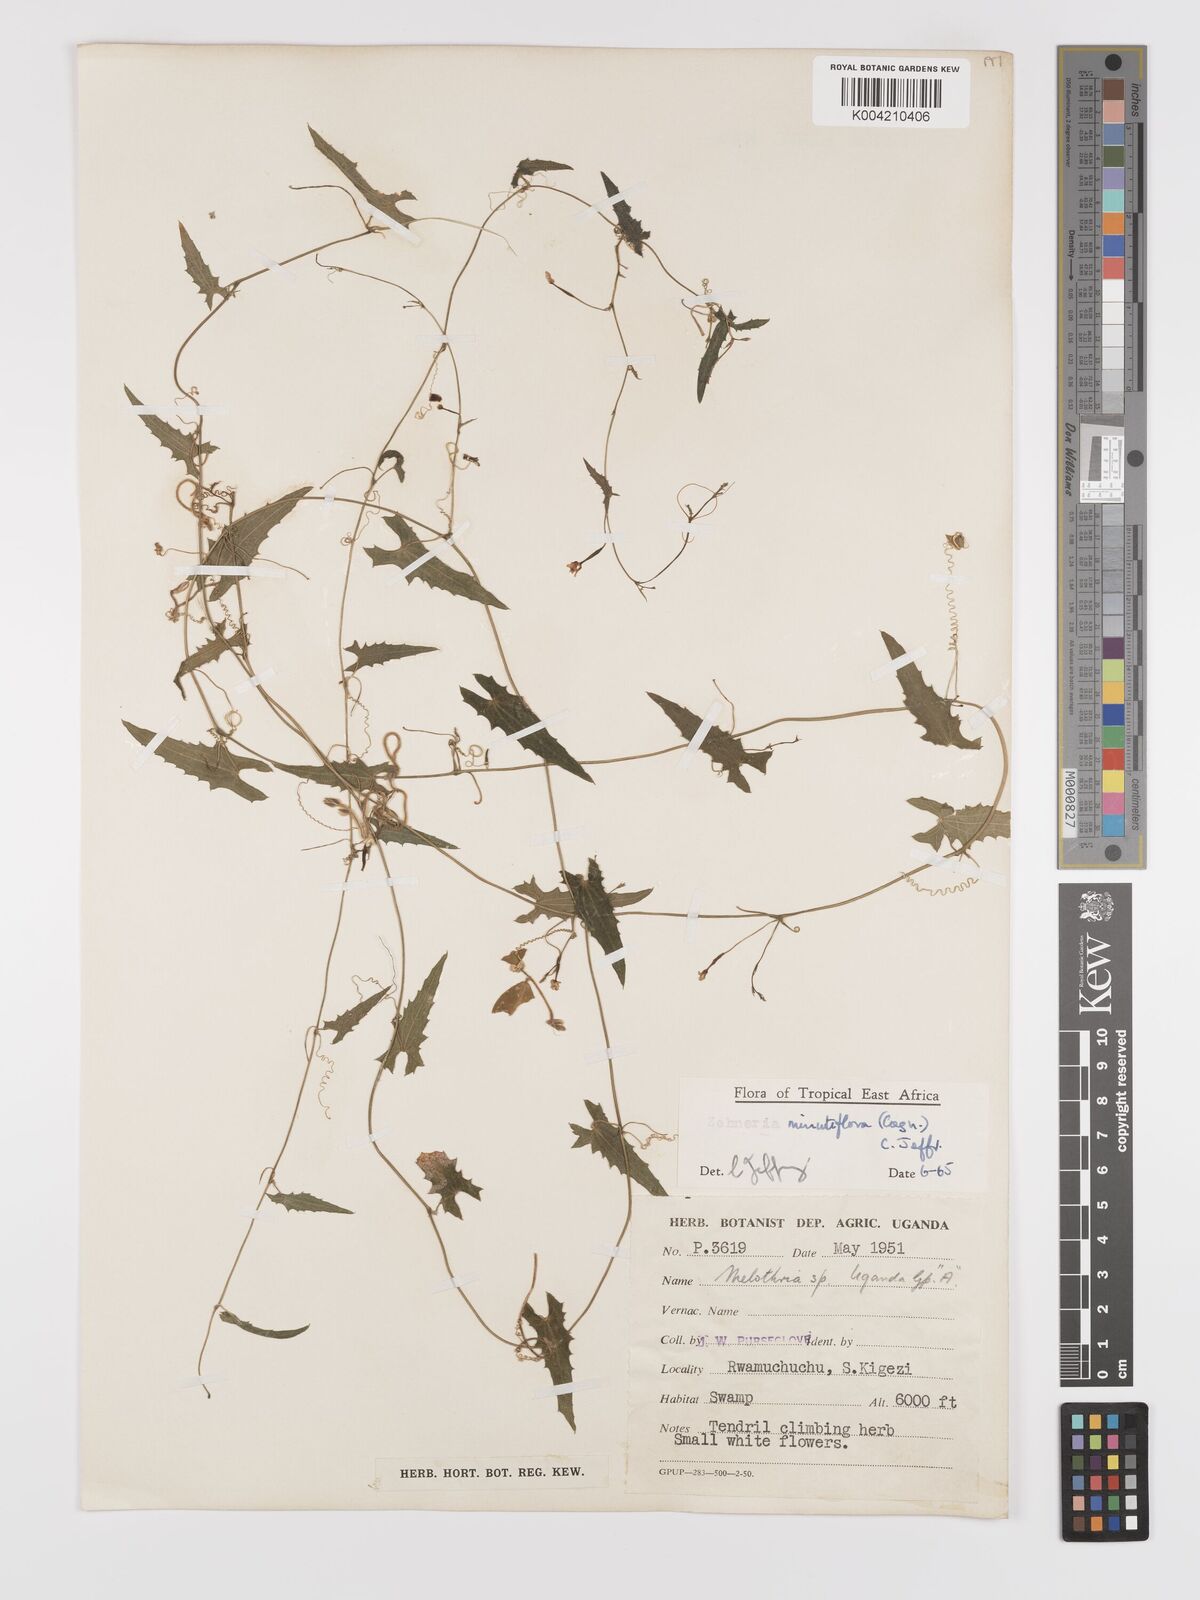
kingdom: Plantae
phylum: Tracheophyta
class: Magnoliopsida
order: Cucurbitales
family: Cucurbitaceae
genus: Zehneria
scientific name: Zehneria minutiflora
